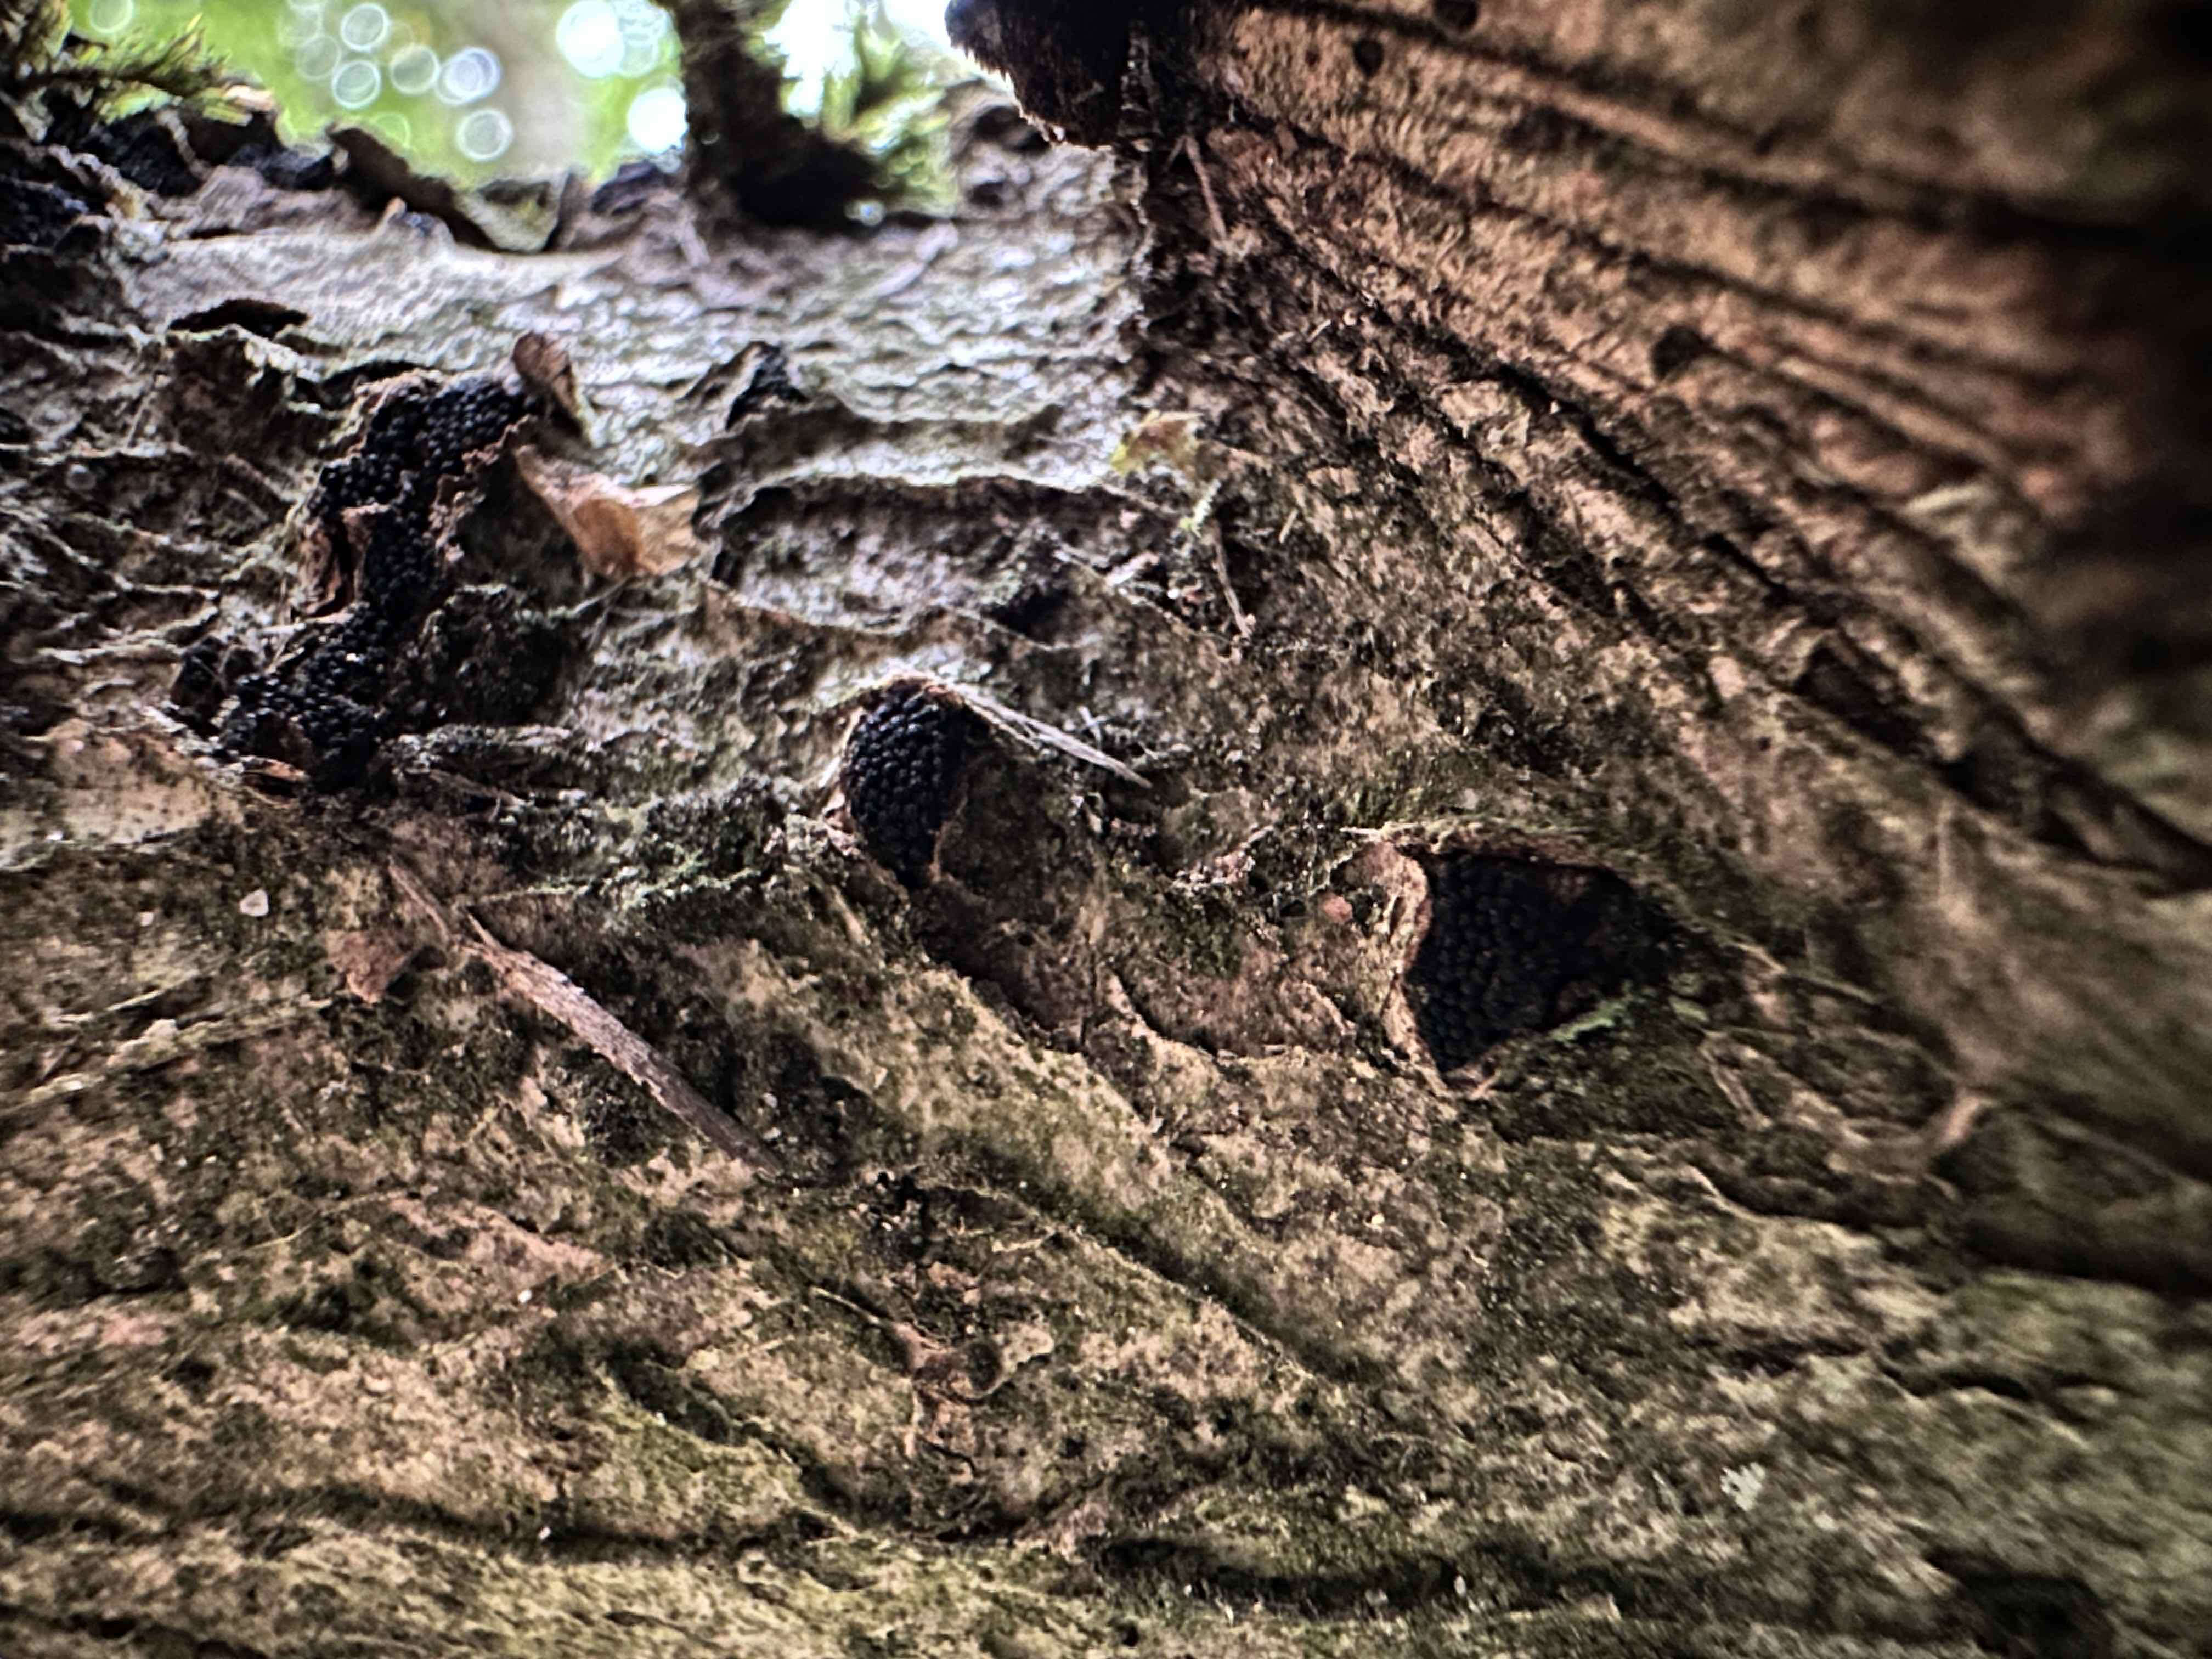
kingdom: Fungi
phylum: Ascomycota
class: Sordariomycetes
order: Xylariales
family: Diatrypaceae
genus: Eutypella
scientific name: Eutypella sorbi
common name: rønne-kulskorpe
